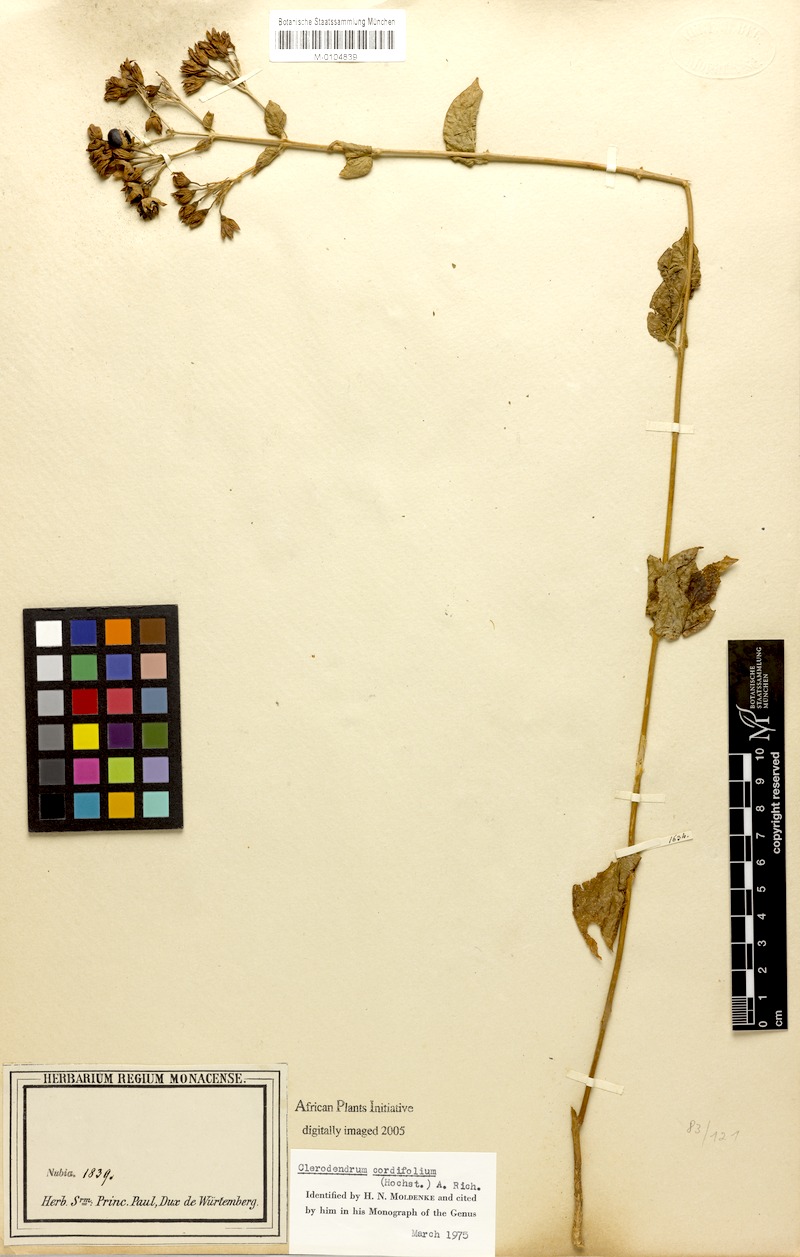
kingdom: Plantae
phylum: Tracheophyta
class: Magnoliopsida
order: Lamiales
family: Lamiaceae
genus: Clerodendrum
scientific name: Clerodendrum umbellatum
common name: Umbel clerodendrum
